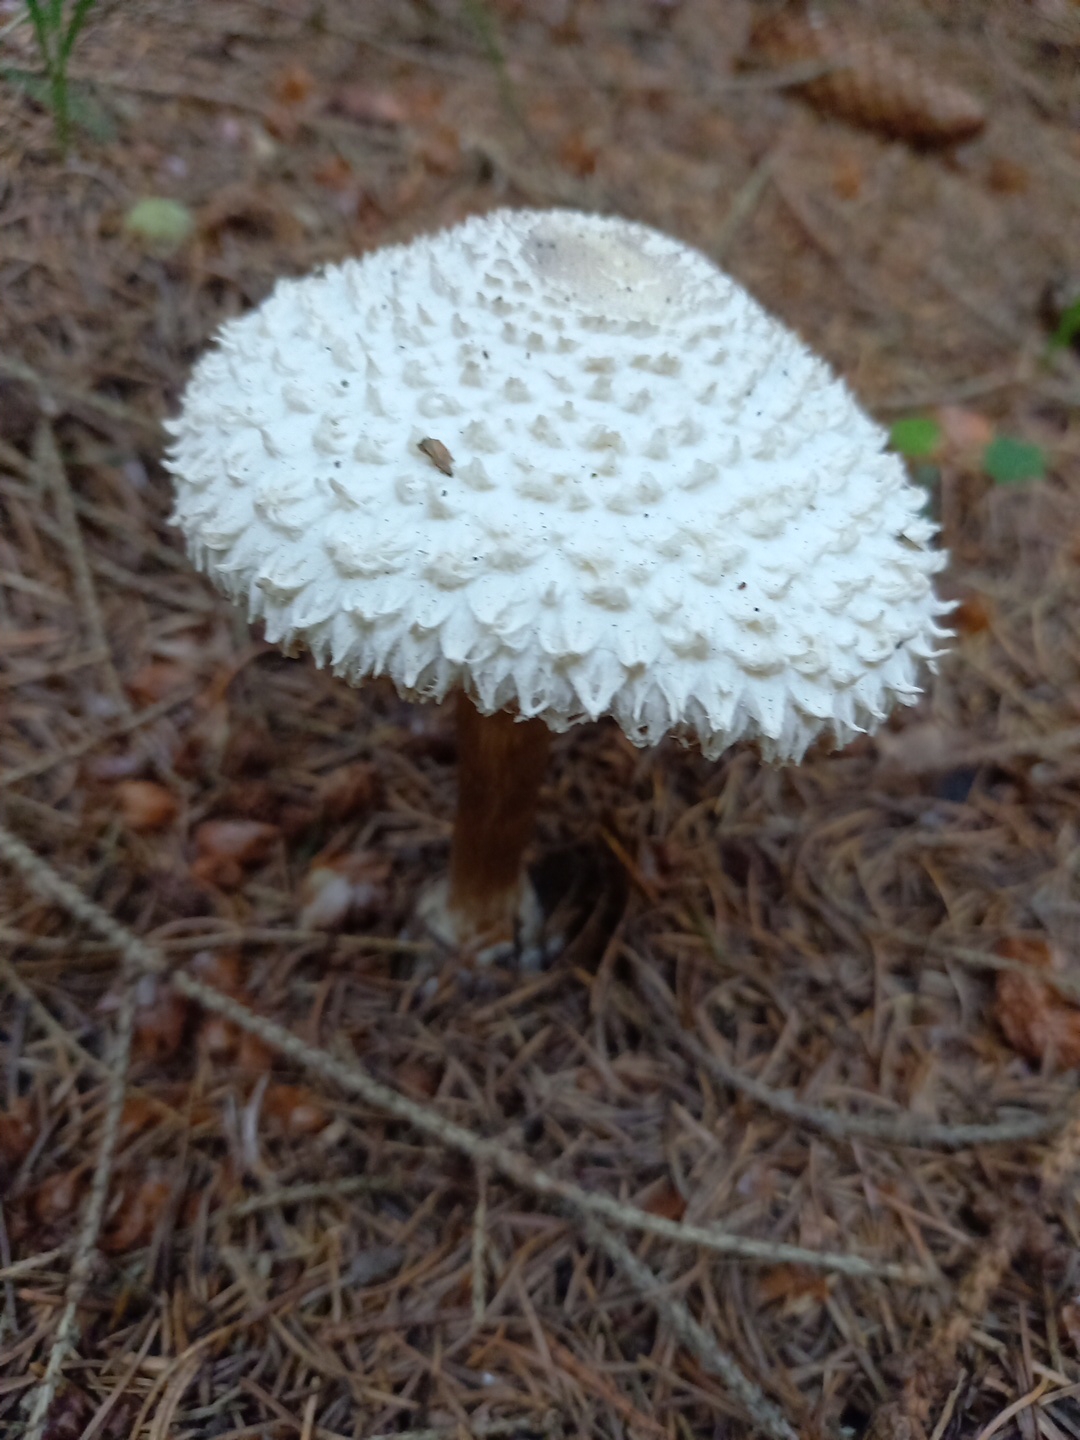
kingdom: Fungi
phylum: Basidiomycota
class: Agaricomycetes
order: Agaricales
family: Agaricaceae
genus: Leucoagaricus
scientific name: Leucoagaricus nympharum
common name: gran-silkehat
